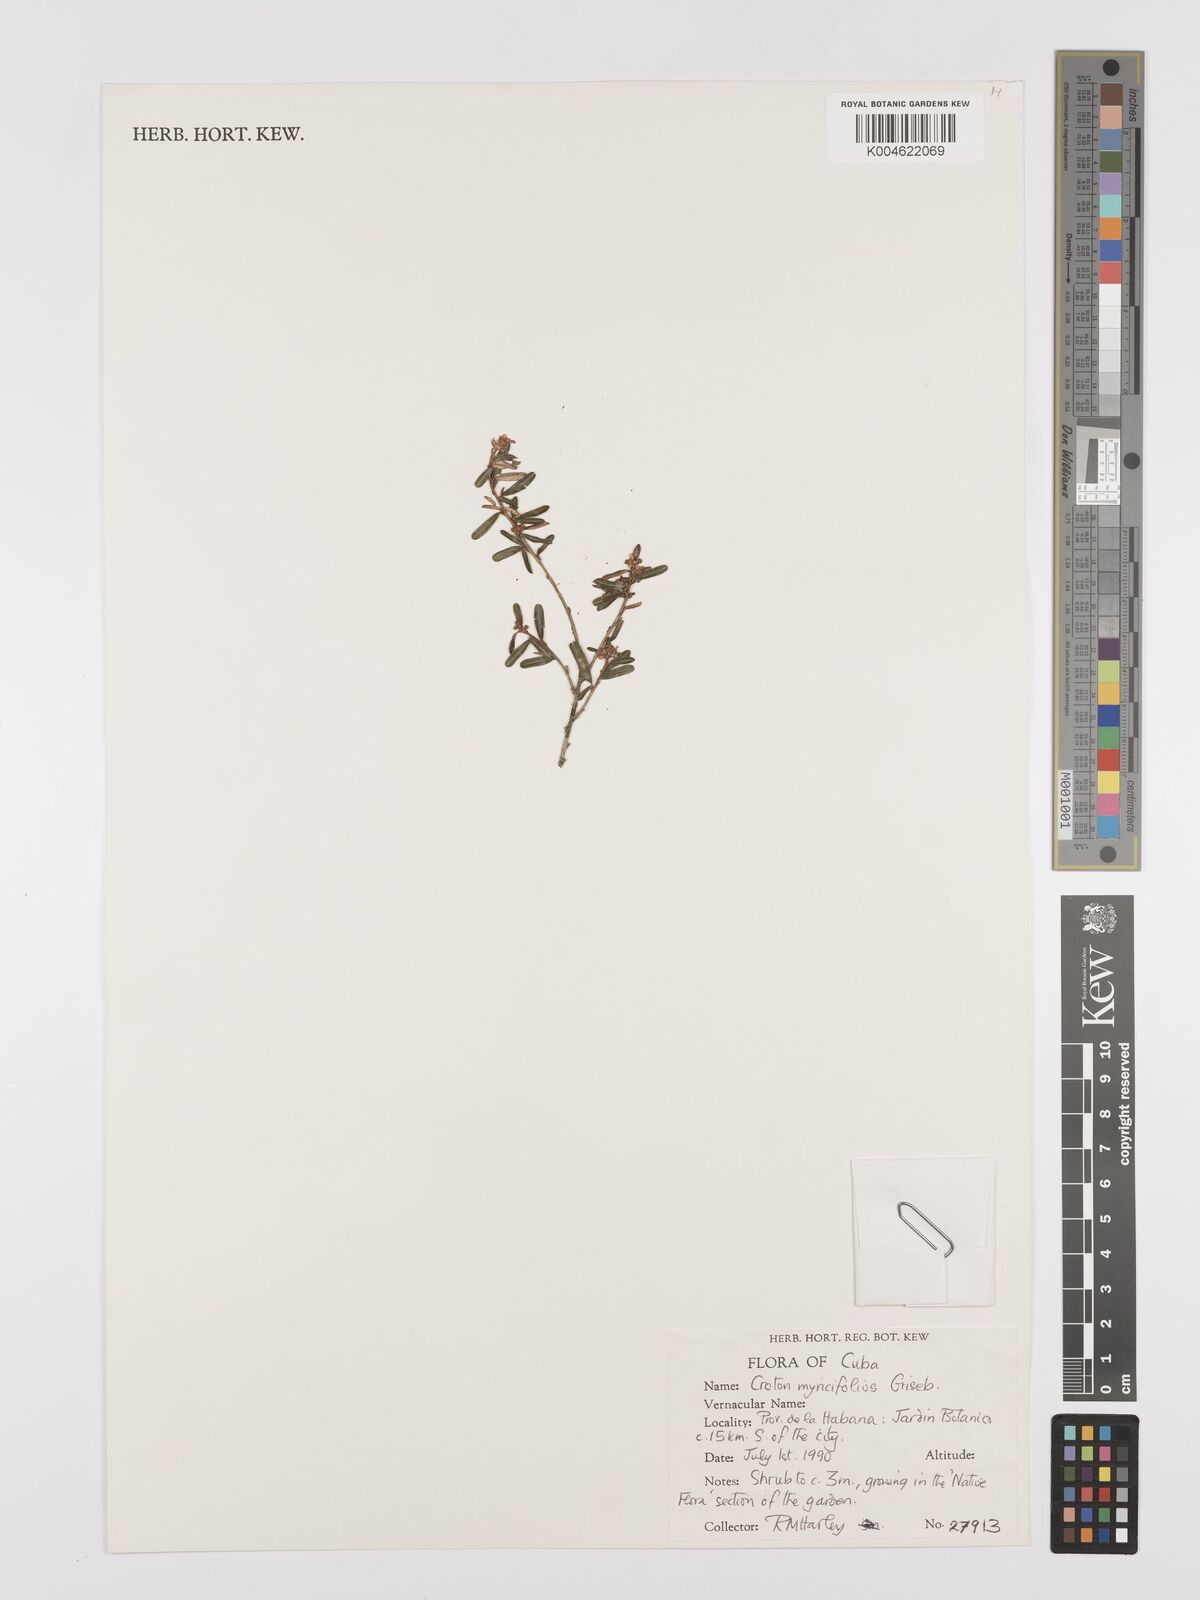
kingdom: Plantae
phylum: Tracheophyta
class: Magnoliopsida
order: Malpighiales
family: Euphorbiaceae
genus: Croton
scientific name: Croton myricifolius
